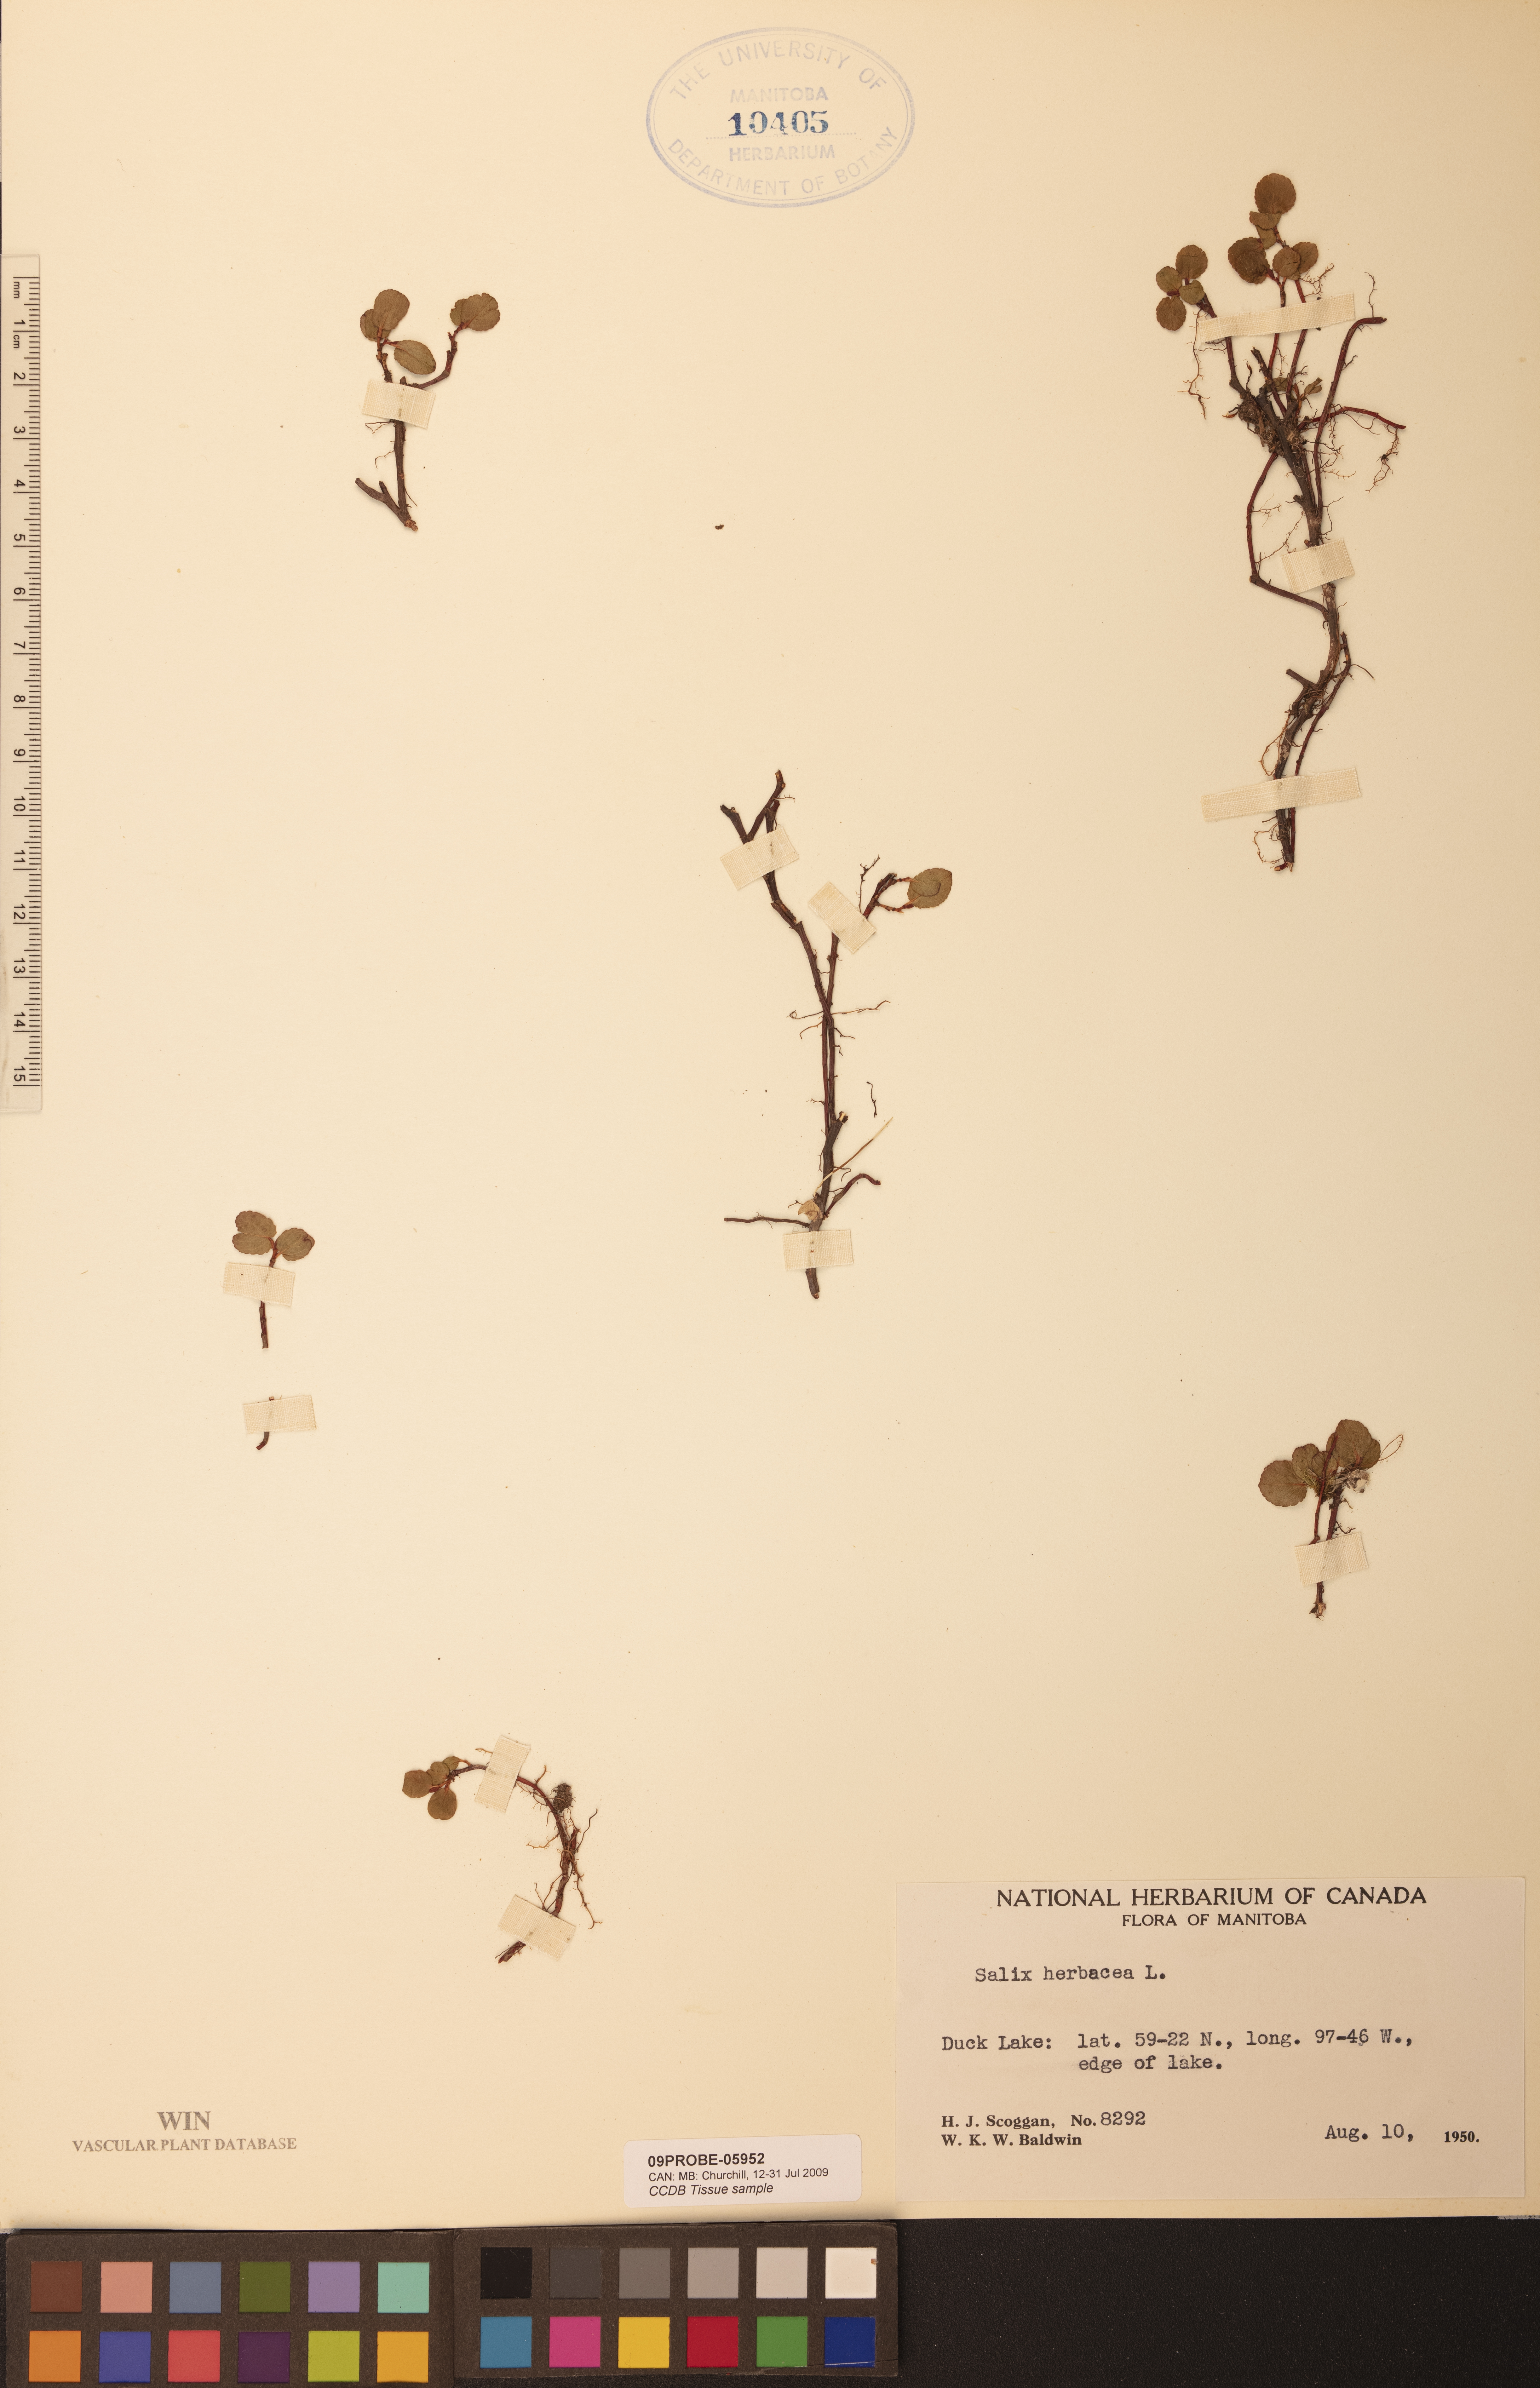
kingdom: Plantae
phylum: Tracheophyta
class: Magnoliopsida
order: Malpighiales
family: Salicaceae
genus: Salix
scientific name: Salix herbacea
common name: Dwarf willow
